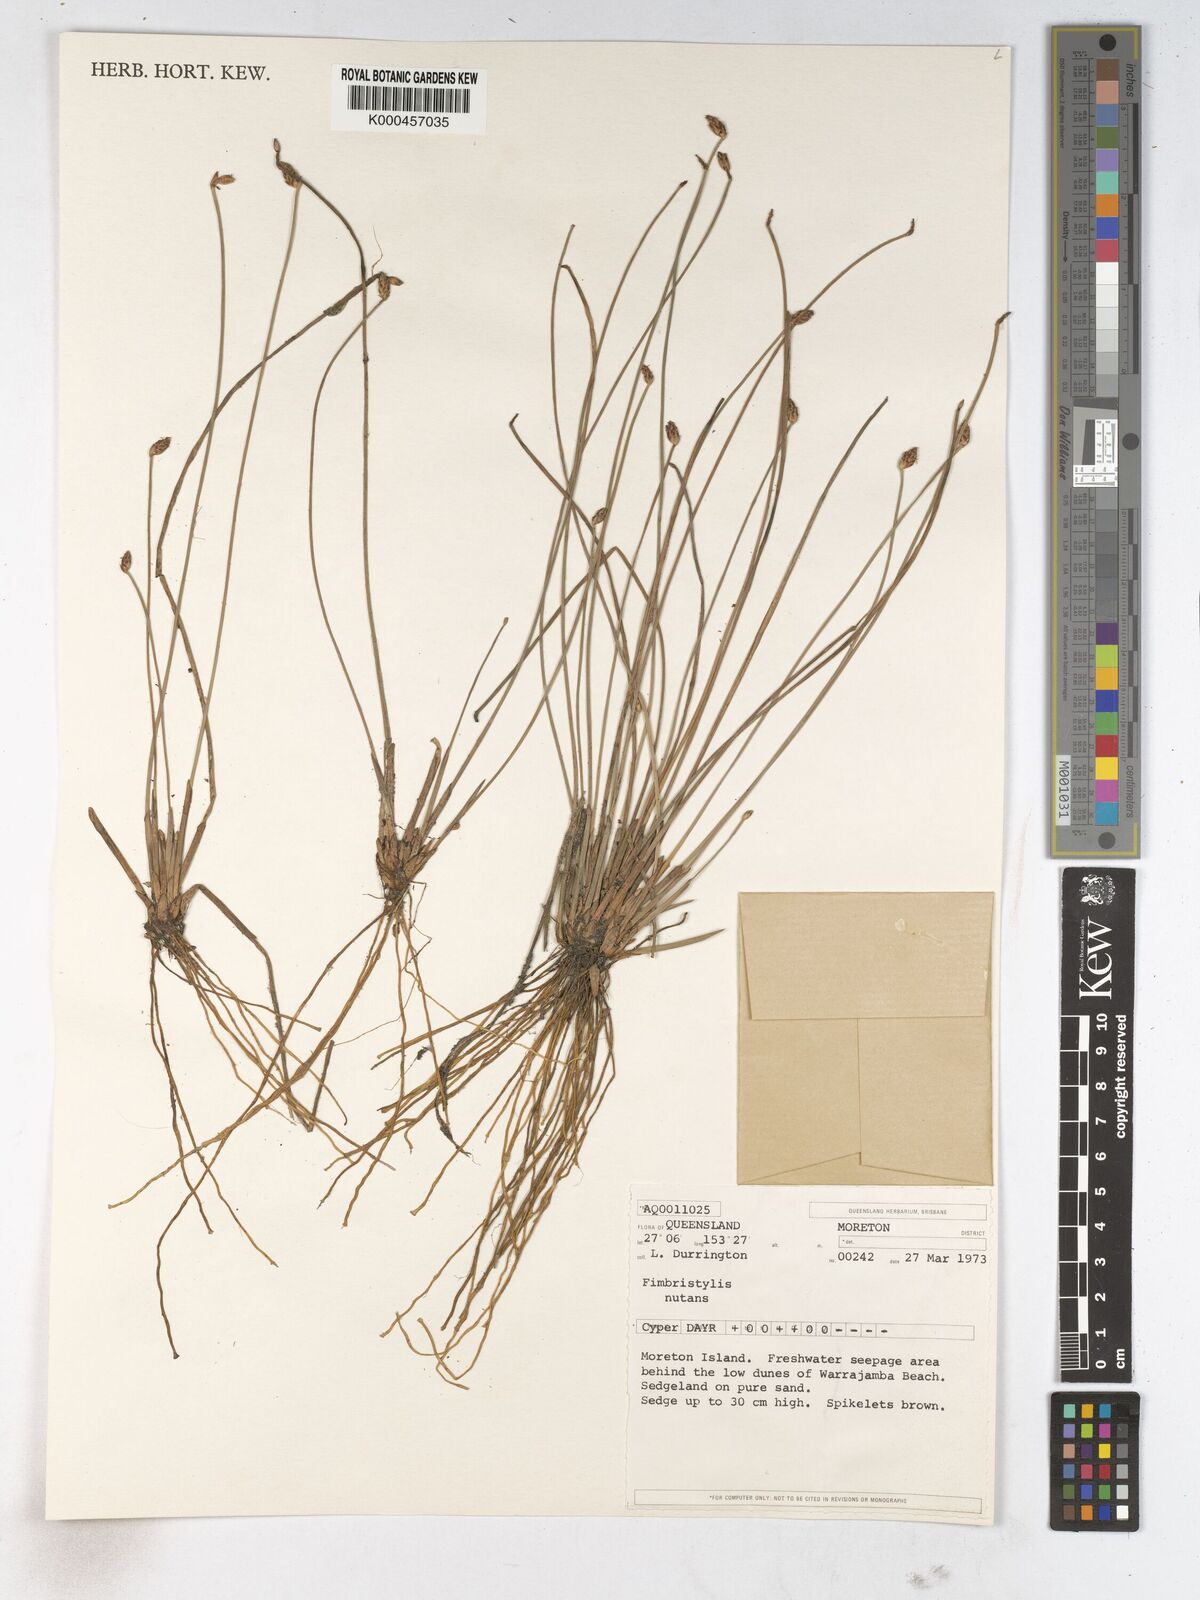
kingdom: Plantae
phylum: Tracheophyta
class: Liliopsida
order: Poales
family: Cyperaceae
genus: Fimbristylis
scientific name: Fimbristylis nutans
